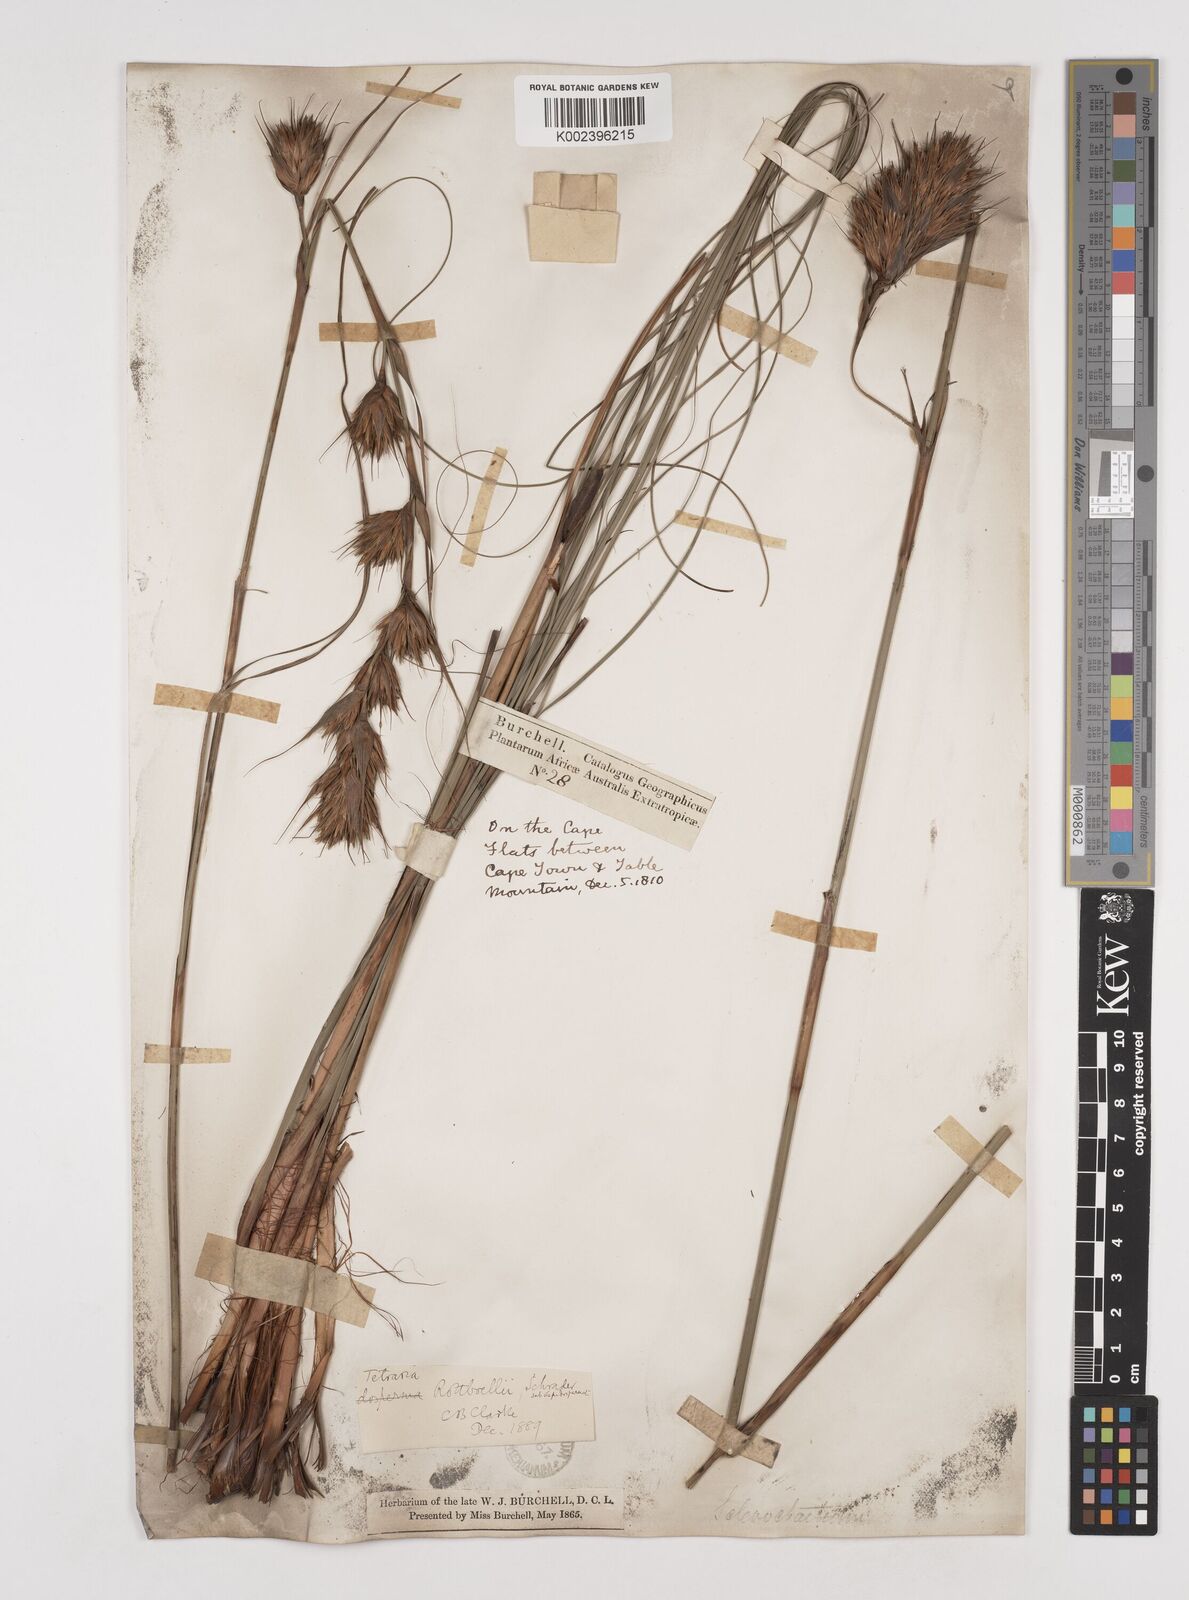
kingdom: Plantae
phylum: Tracheophyta
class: Liliopsida
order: Poales
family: Cyperaceae
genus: Tetraria
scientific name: Tetraria bromoides
